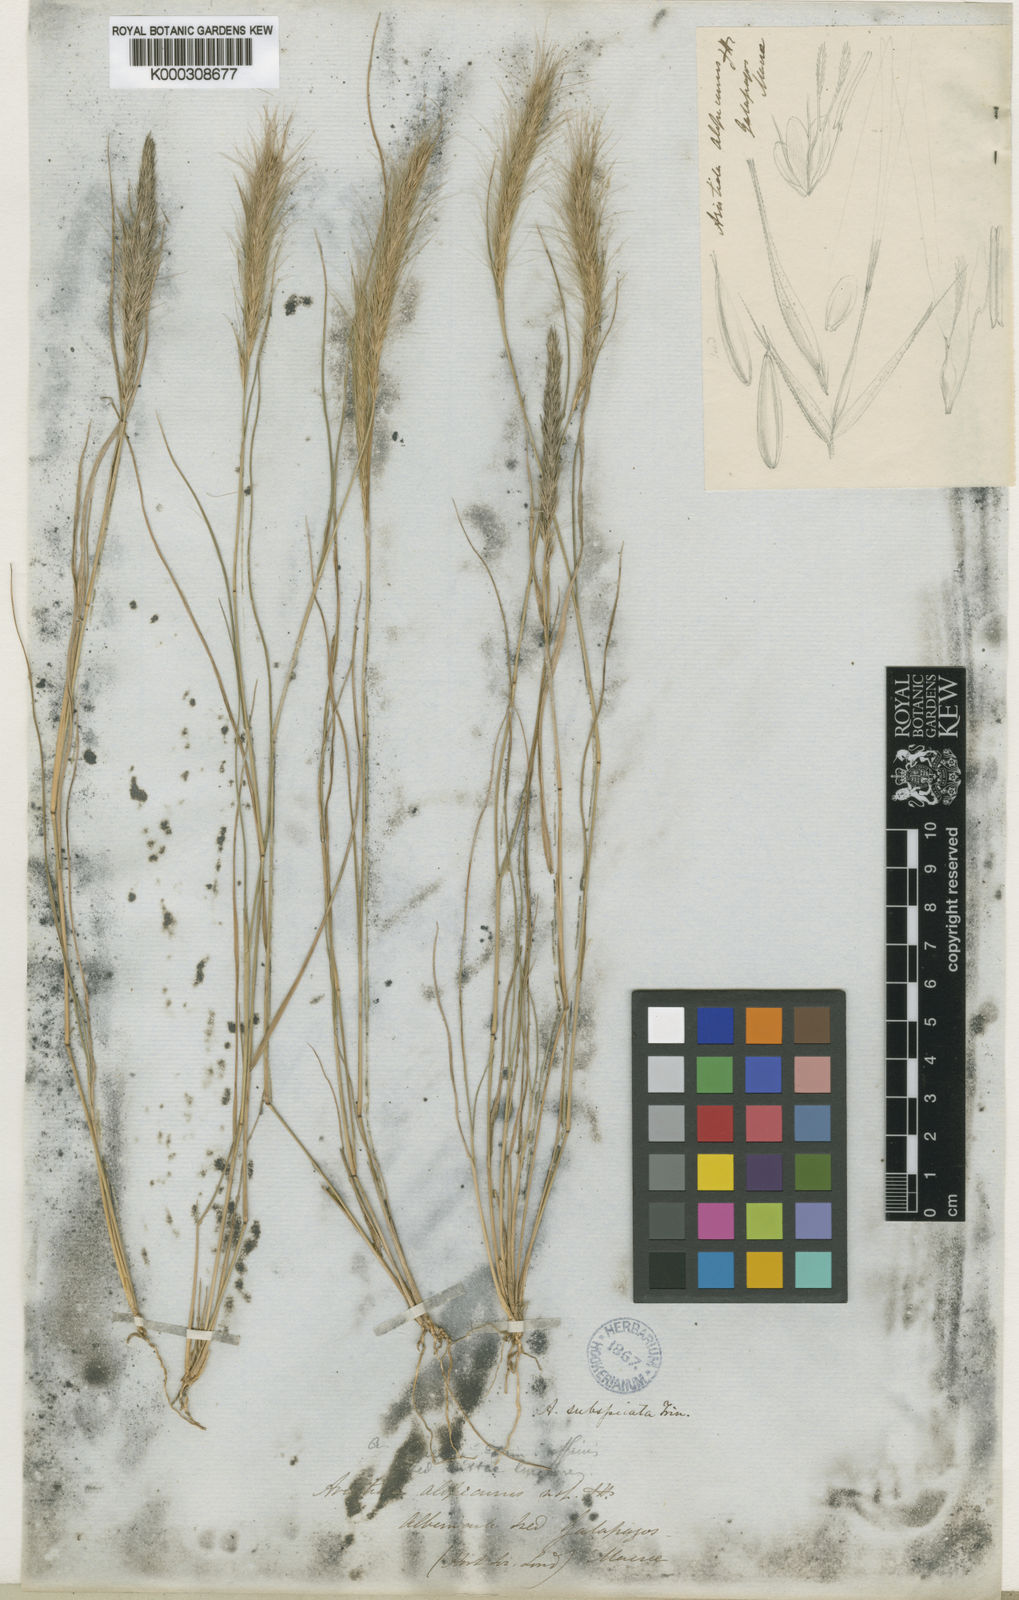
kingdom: Plantae
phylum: Tracheophyta
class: Liliopsida
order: Poales
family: Poaceae
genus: Aristida
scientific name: Aristida subspicata
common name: Galapagos three-awn grass
